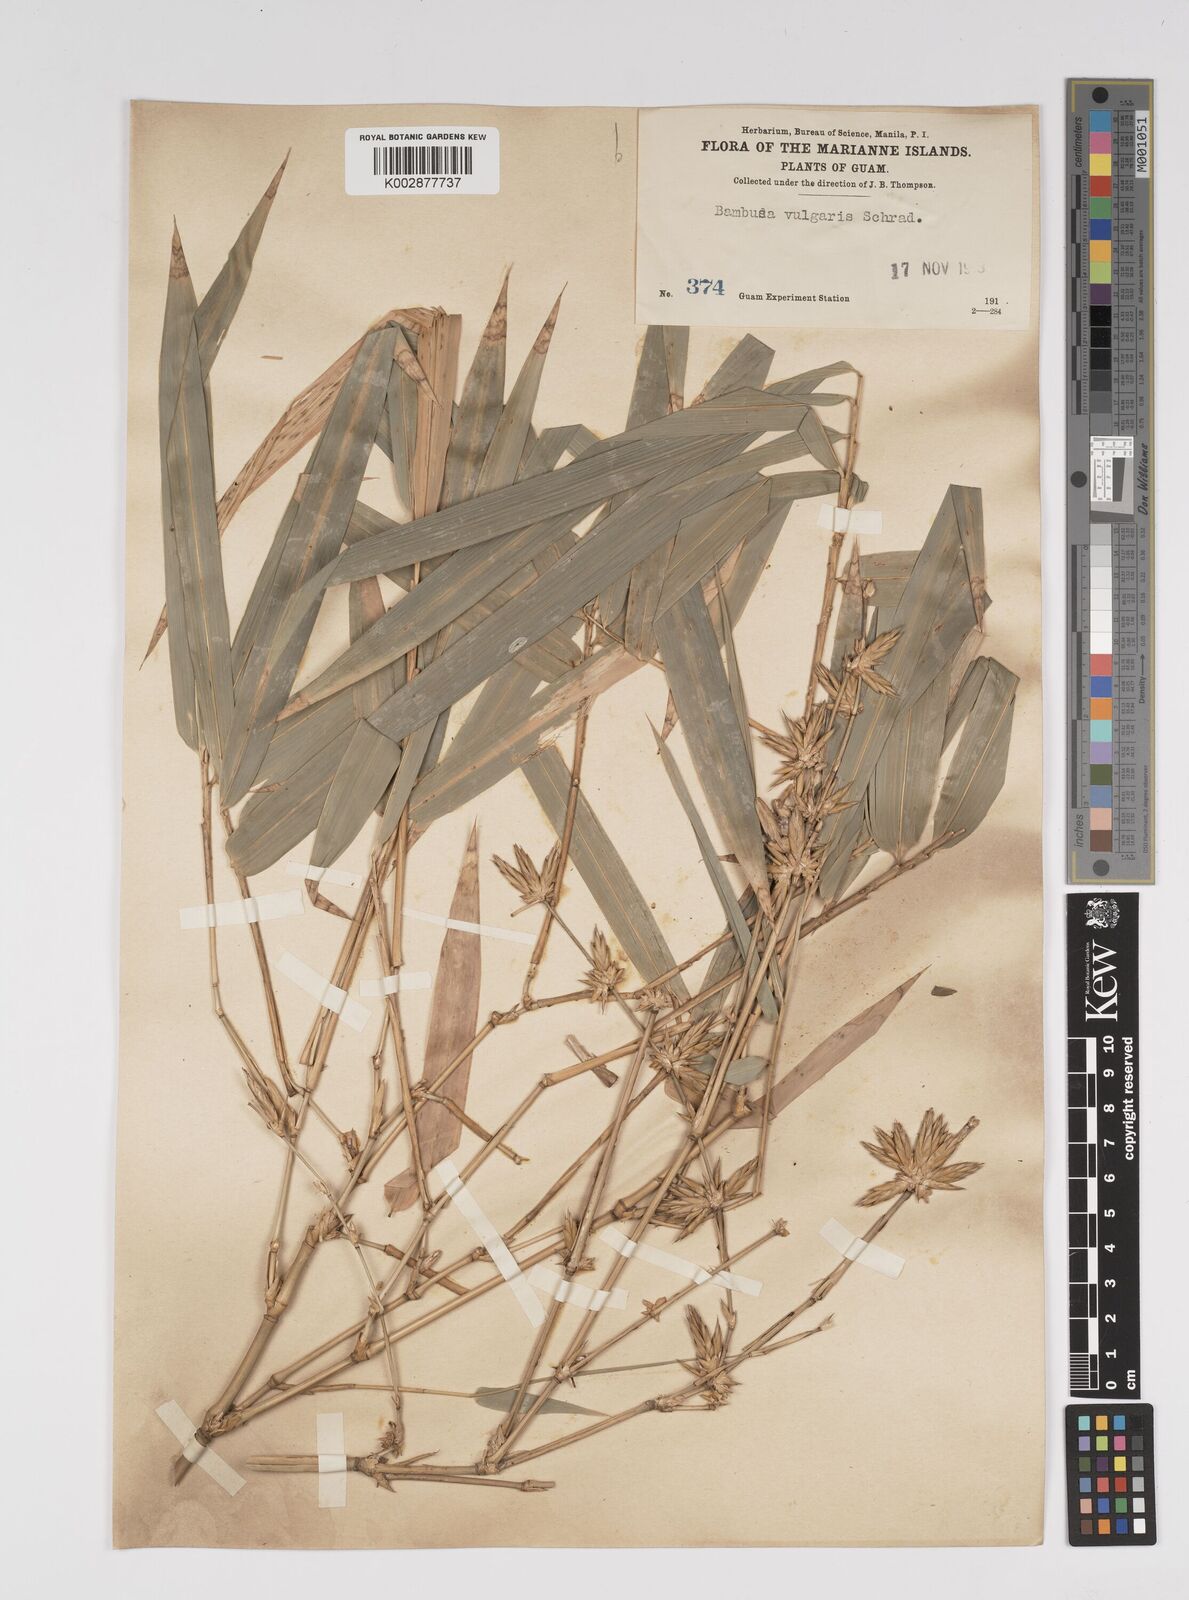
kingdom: Plantae
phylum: Tracheophyta
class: Liliopsida
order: Poales
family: Poaceae
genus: Bambusa
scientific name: Bambusa vulgaris
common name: Common bamboo
